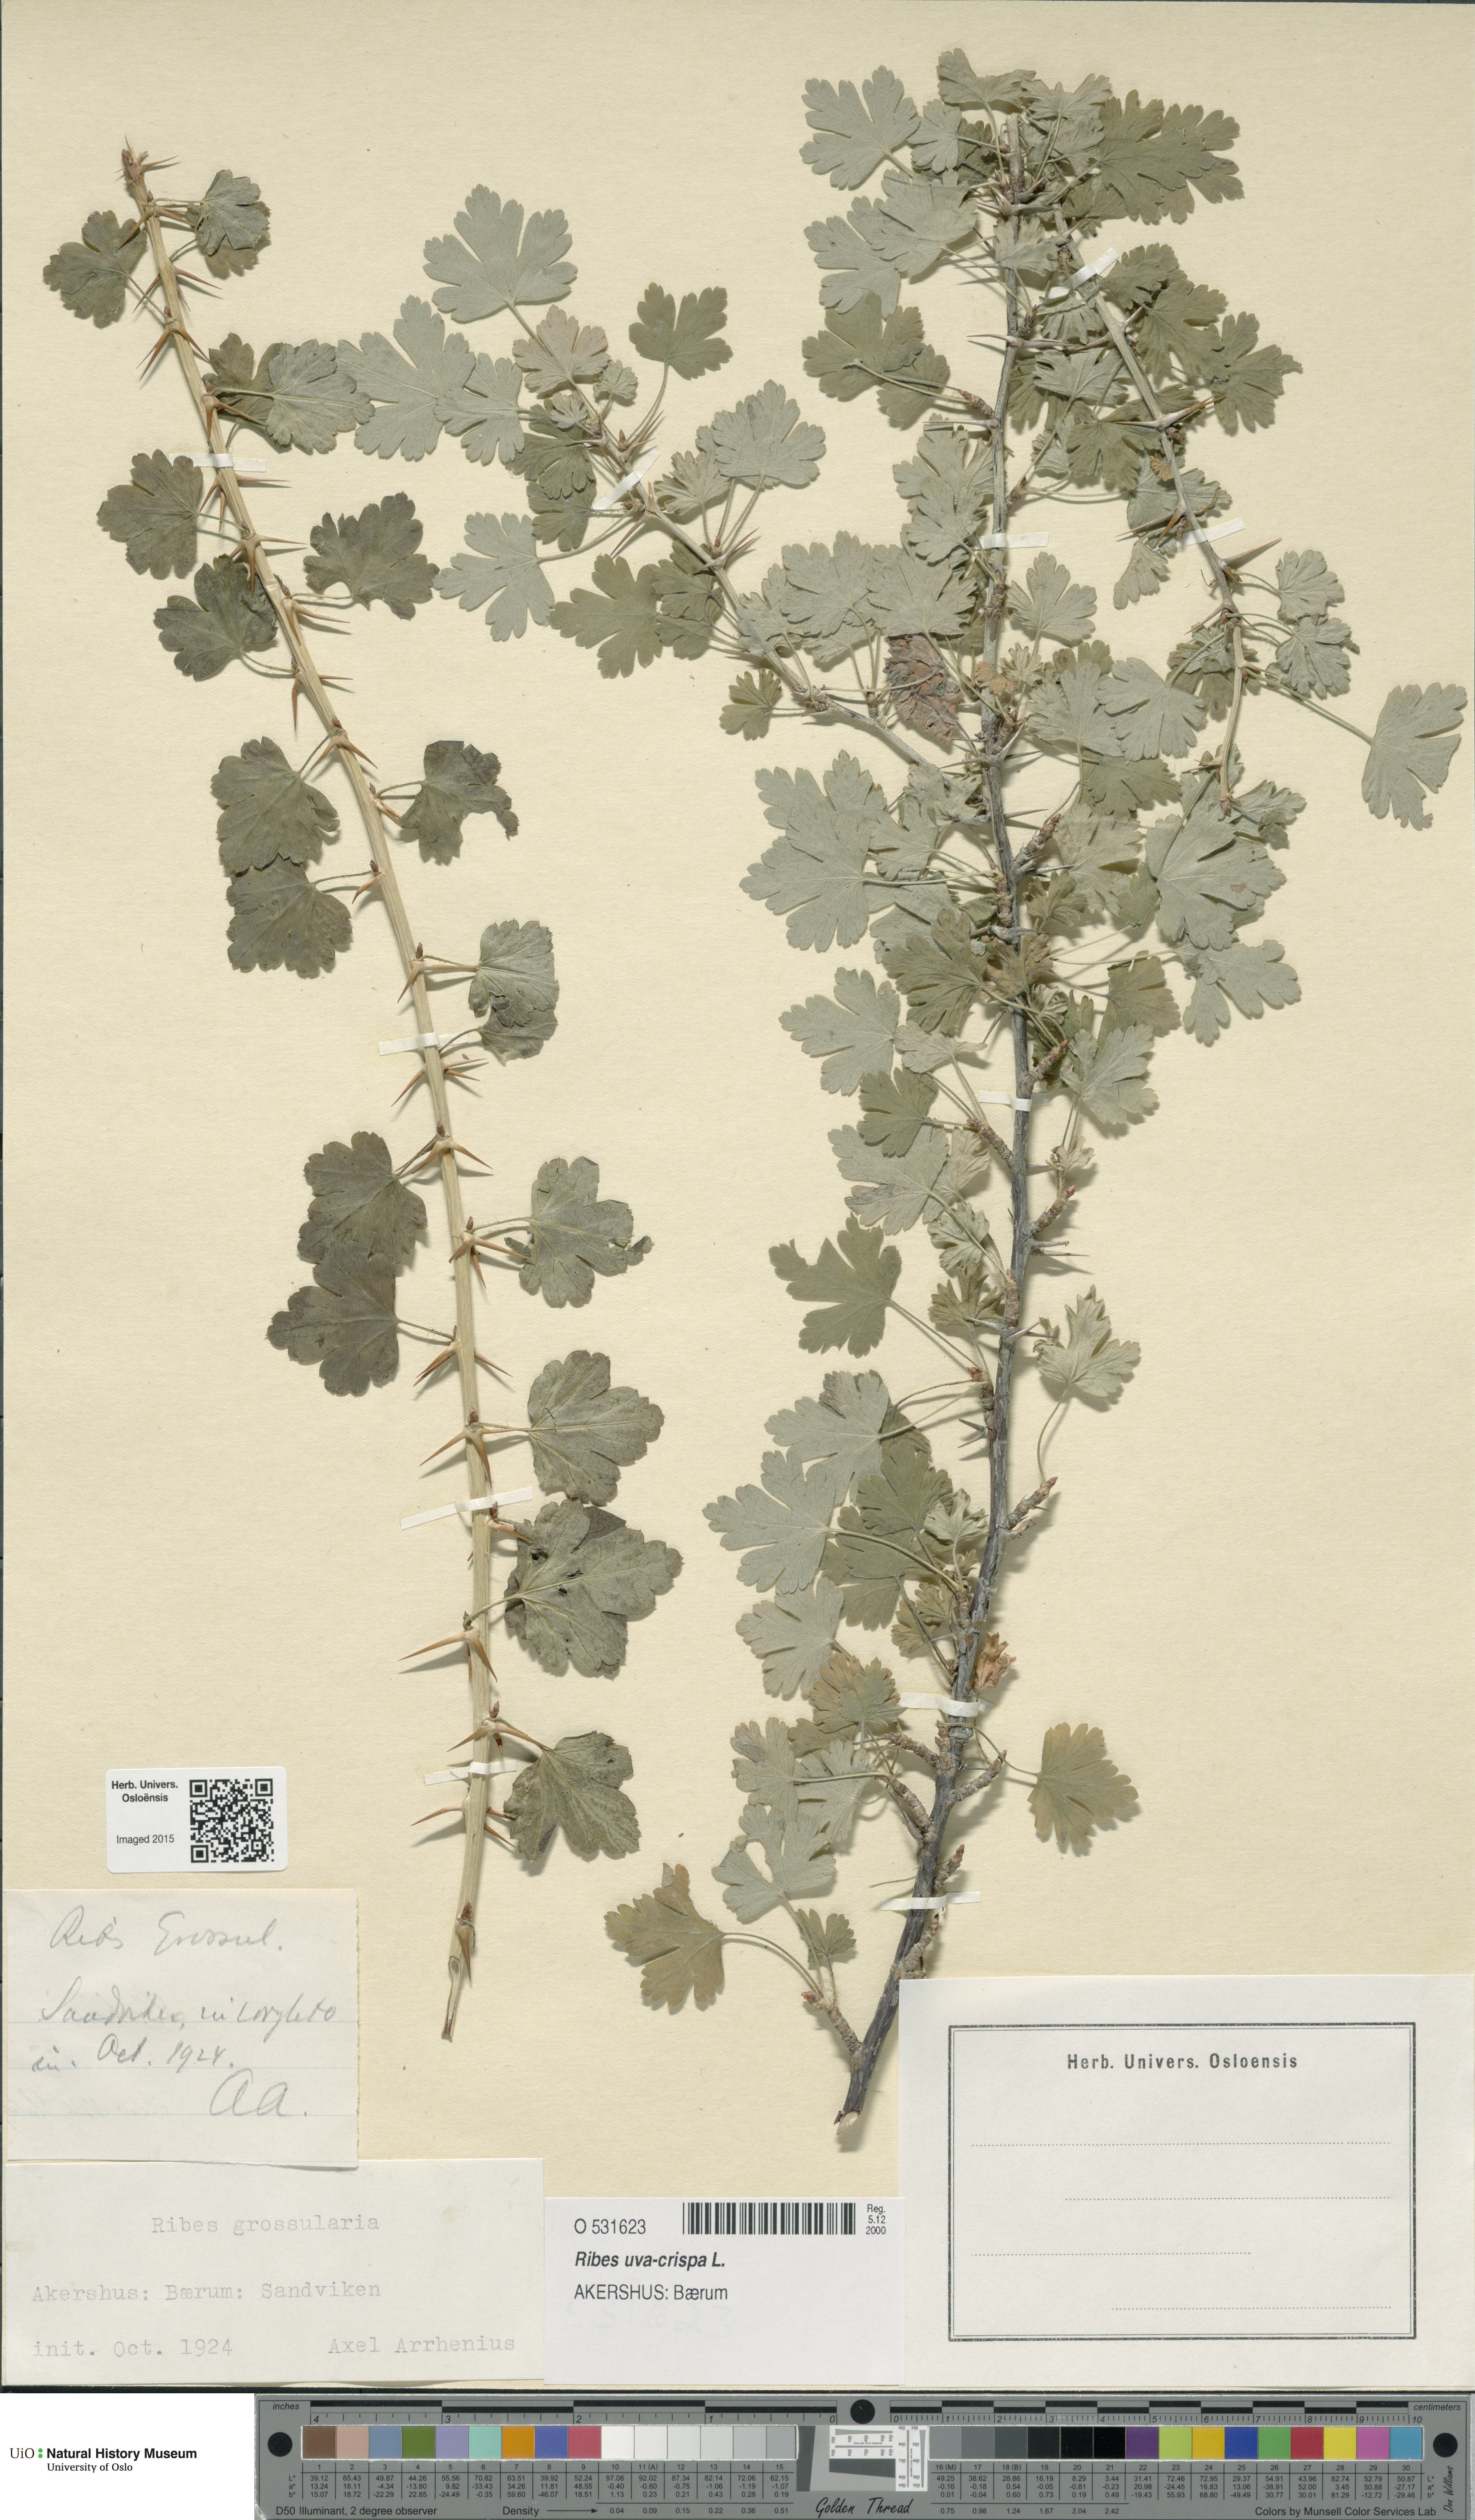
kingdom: Plantae
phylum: Tracheophyta
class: Magnoliopsida
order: Saxifragales
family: Grossulariaceae
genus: Ribes
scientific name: Ribes uva-crispa
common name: Gooseberry
